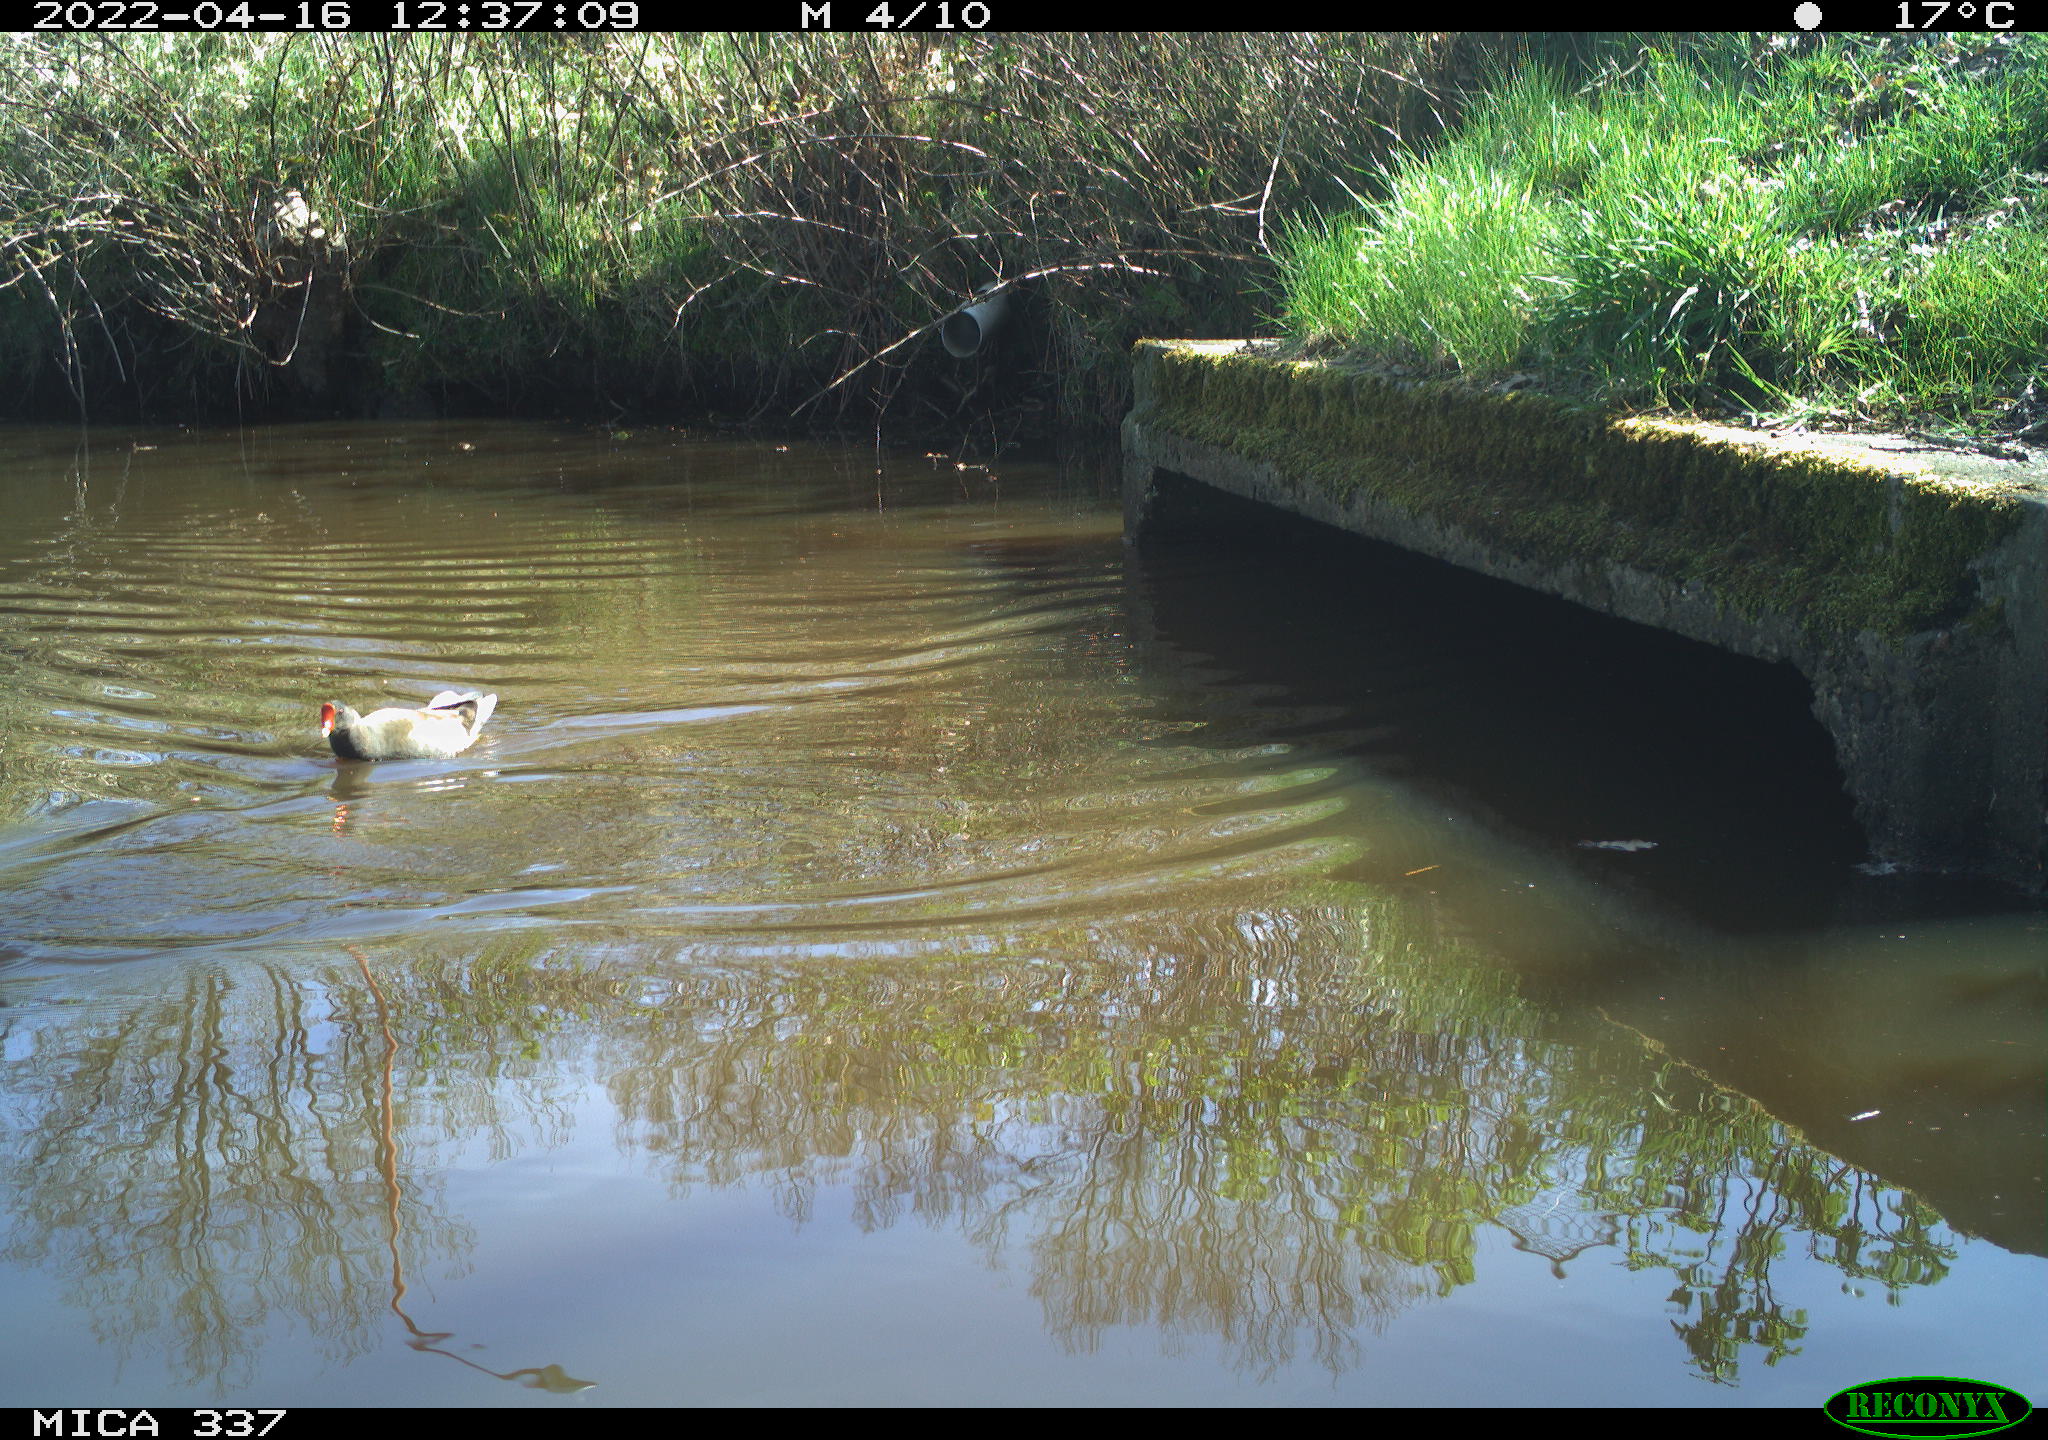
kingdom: Animalia
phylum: Chordata
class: Aves
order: Gruiformes
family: Rallidae
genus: Gallinula
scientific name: Gallinula chloropus
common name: Common moorhen
